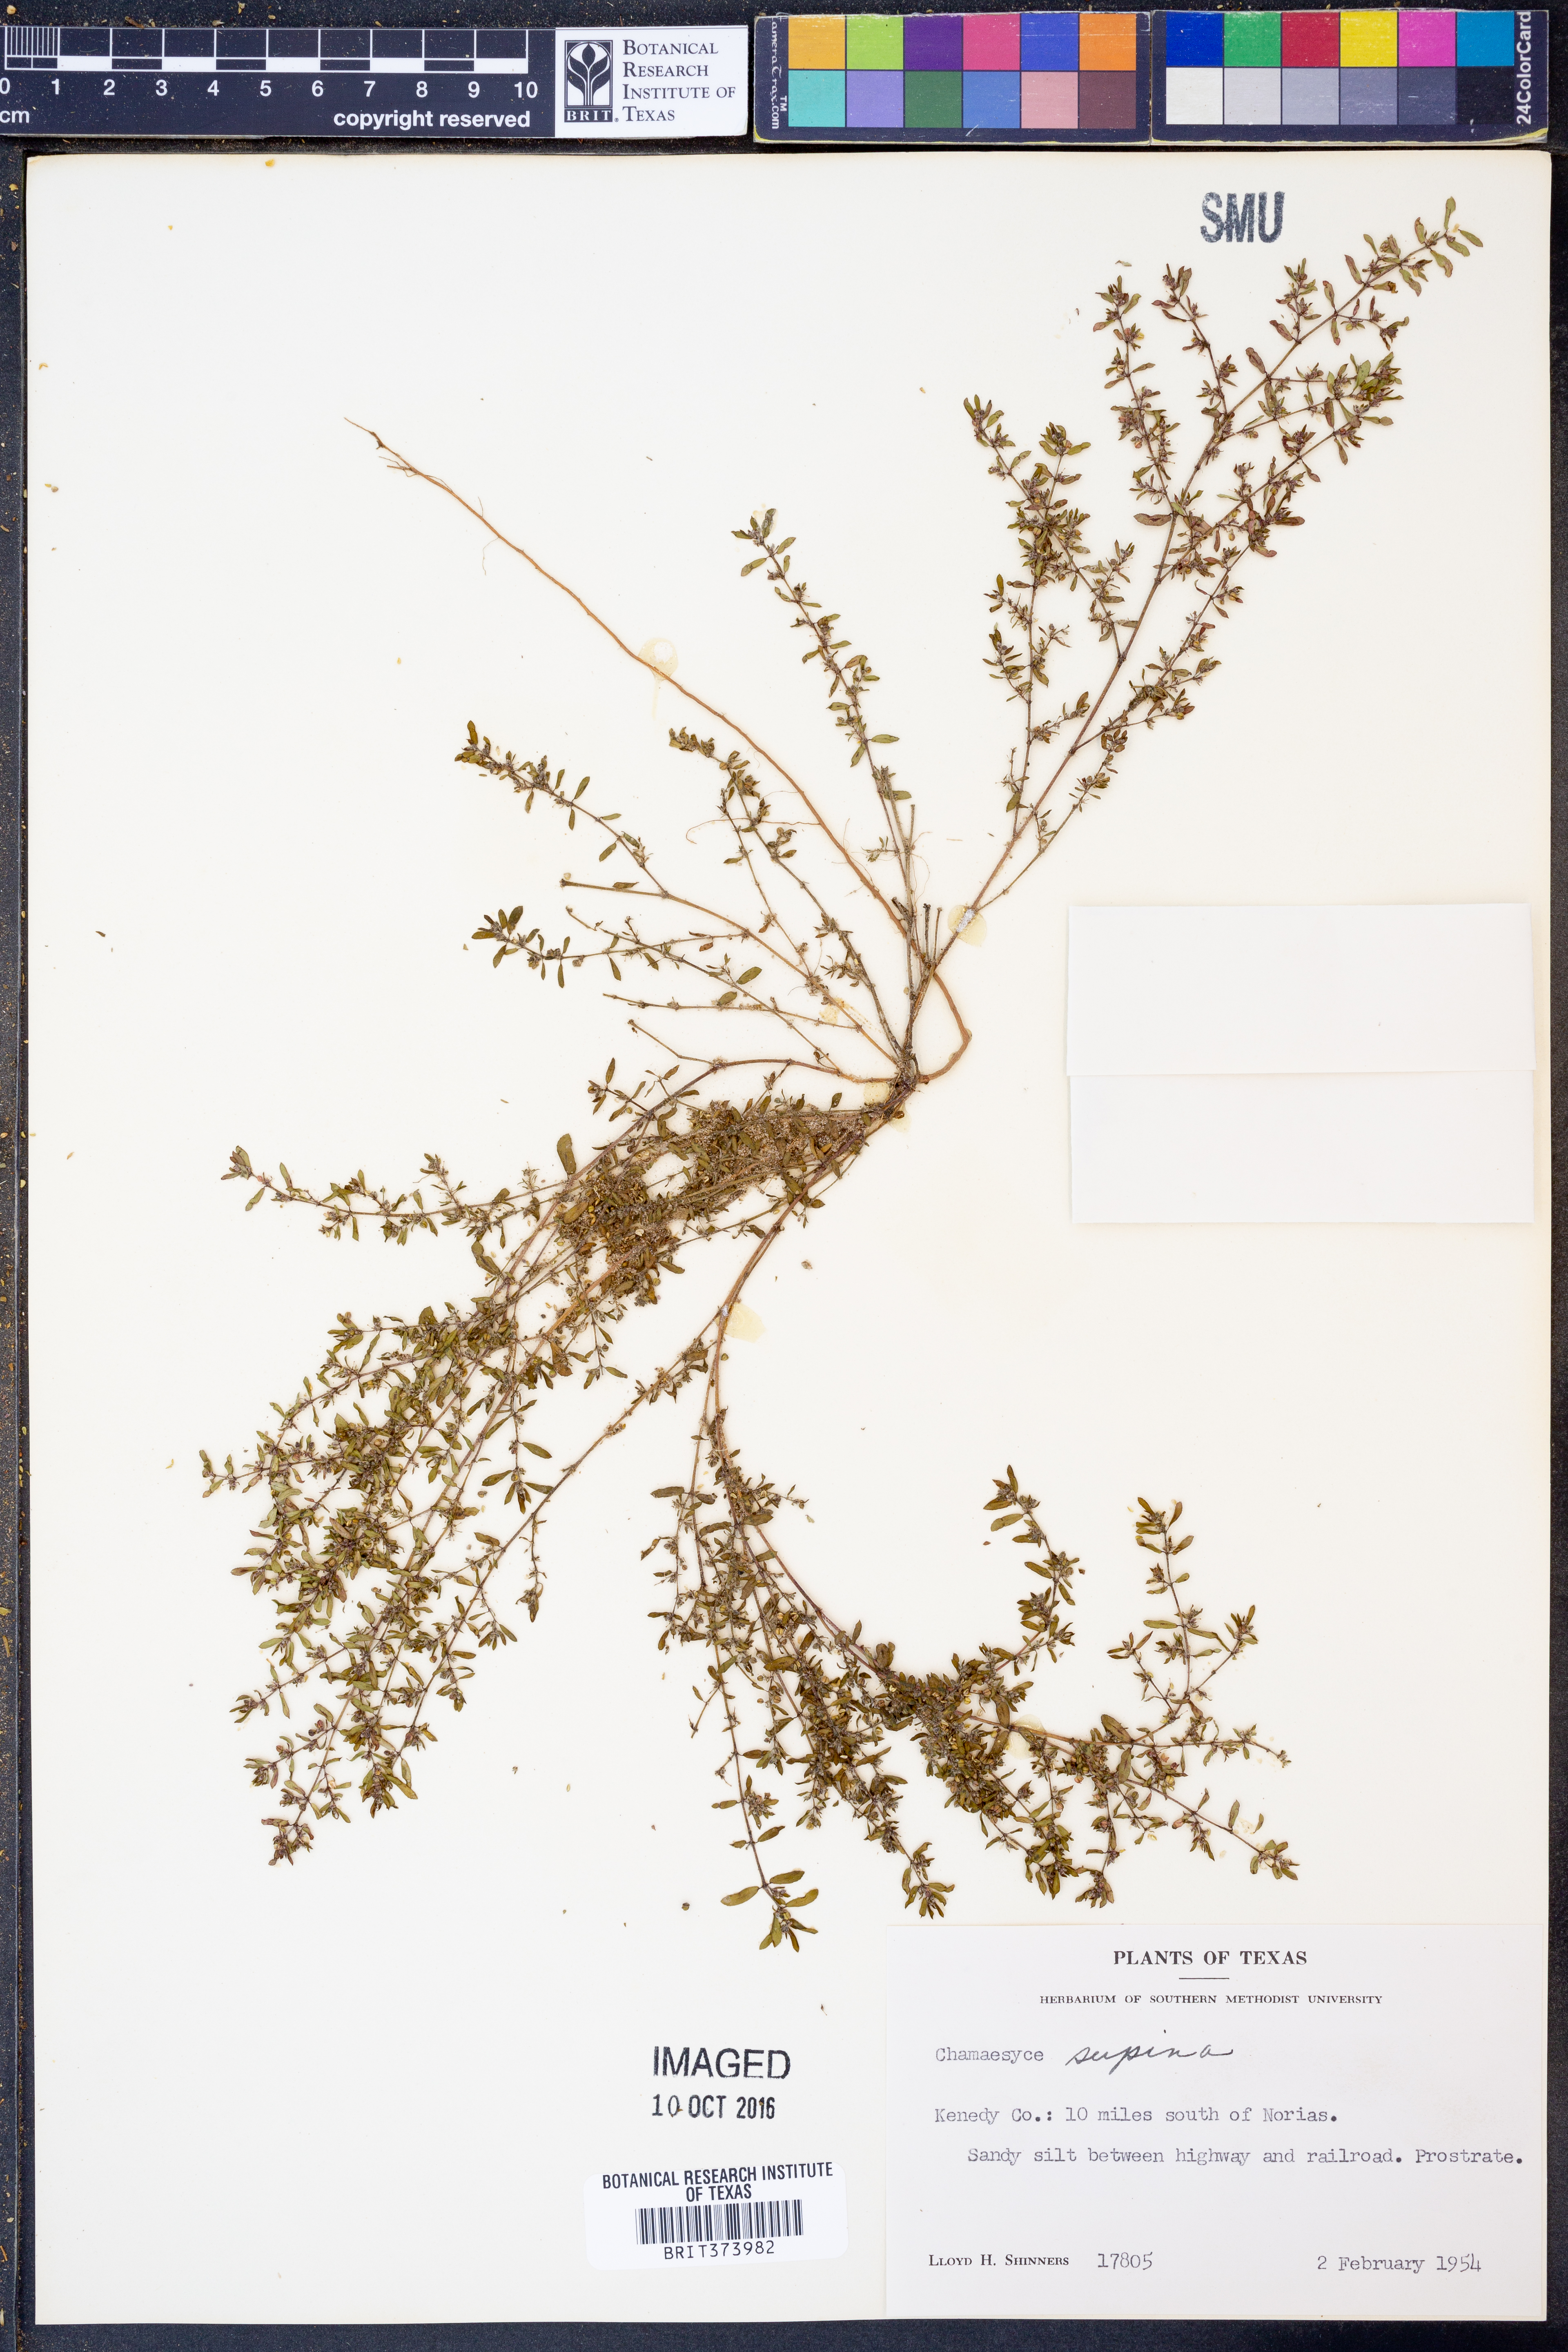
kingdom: Plantae
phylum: Tracheophyta
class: Magnoliopsida
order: Malpighiales
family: Euphorbiaceae
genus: Euphorbia
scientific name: Euphorbia maculata
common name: Spotted spurge
